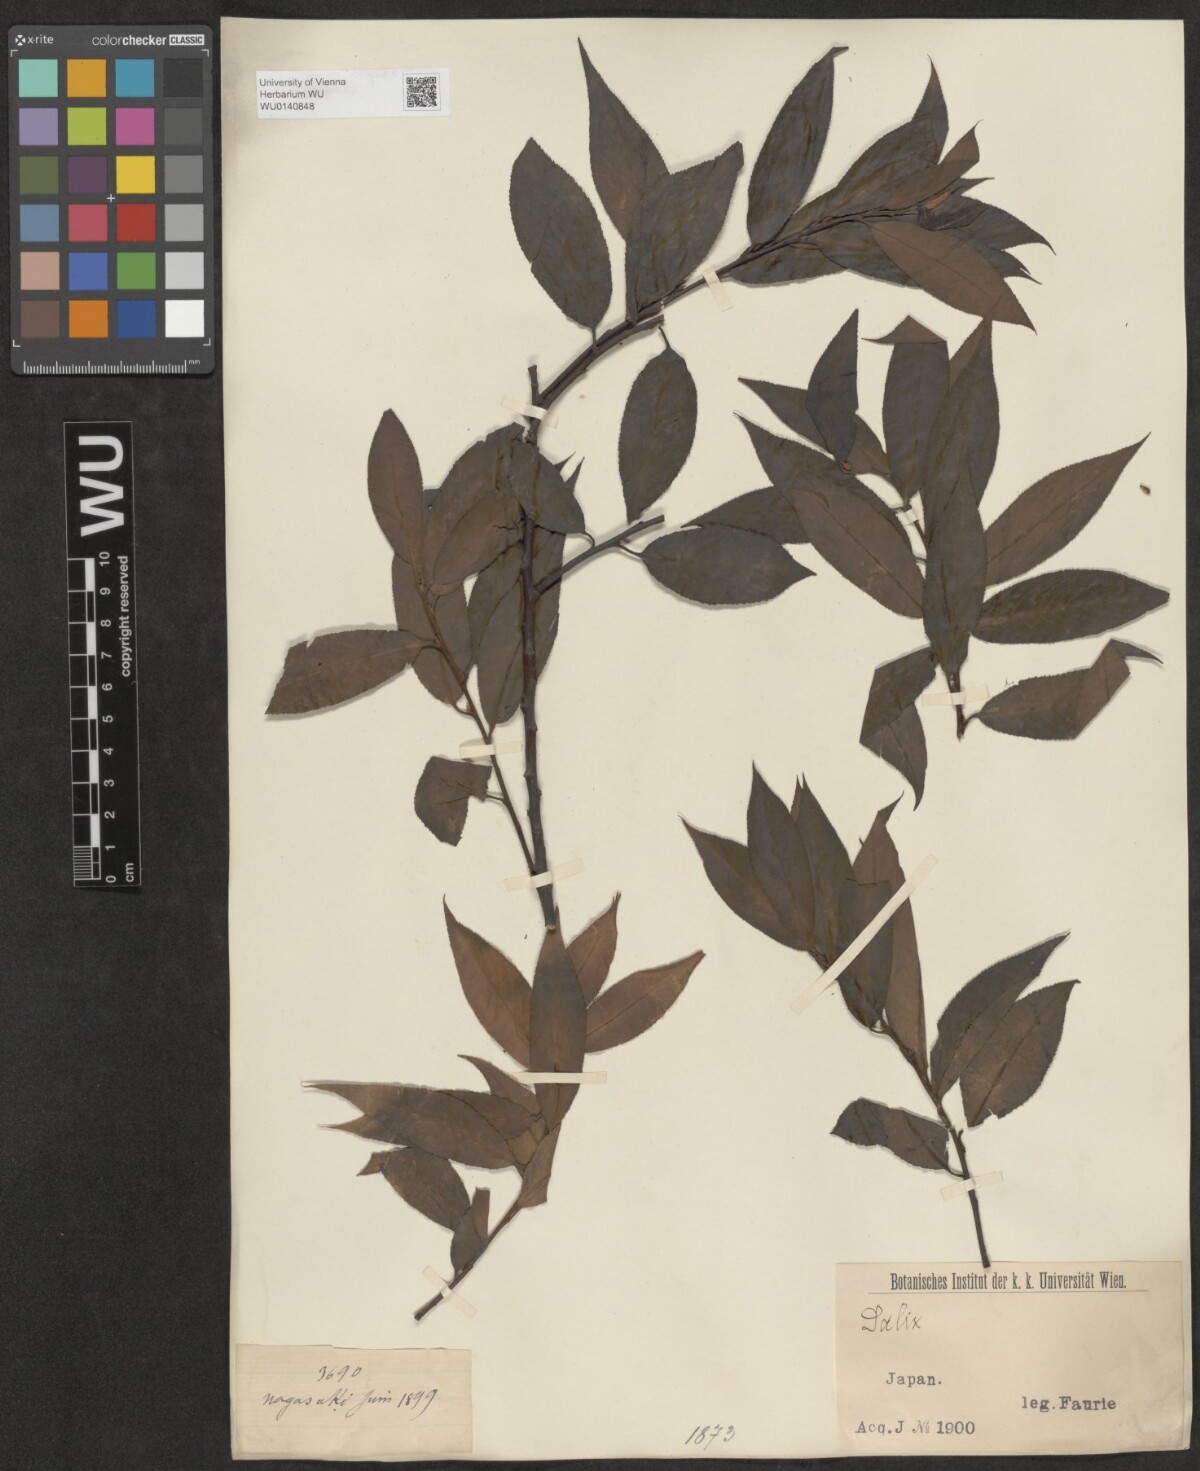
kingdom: Plantae
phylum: Tracheophyta
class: Magnoliopsida
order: Malpighiales
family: Salicaceae
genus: Salix
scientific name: Salix
